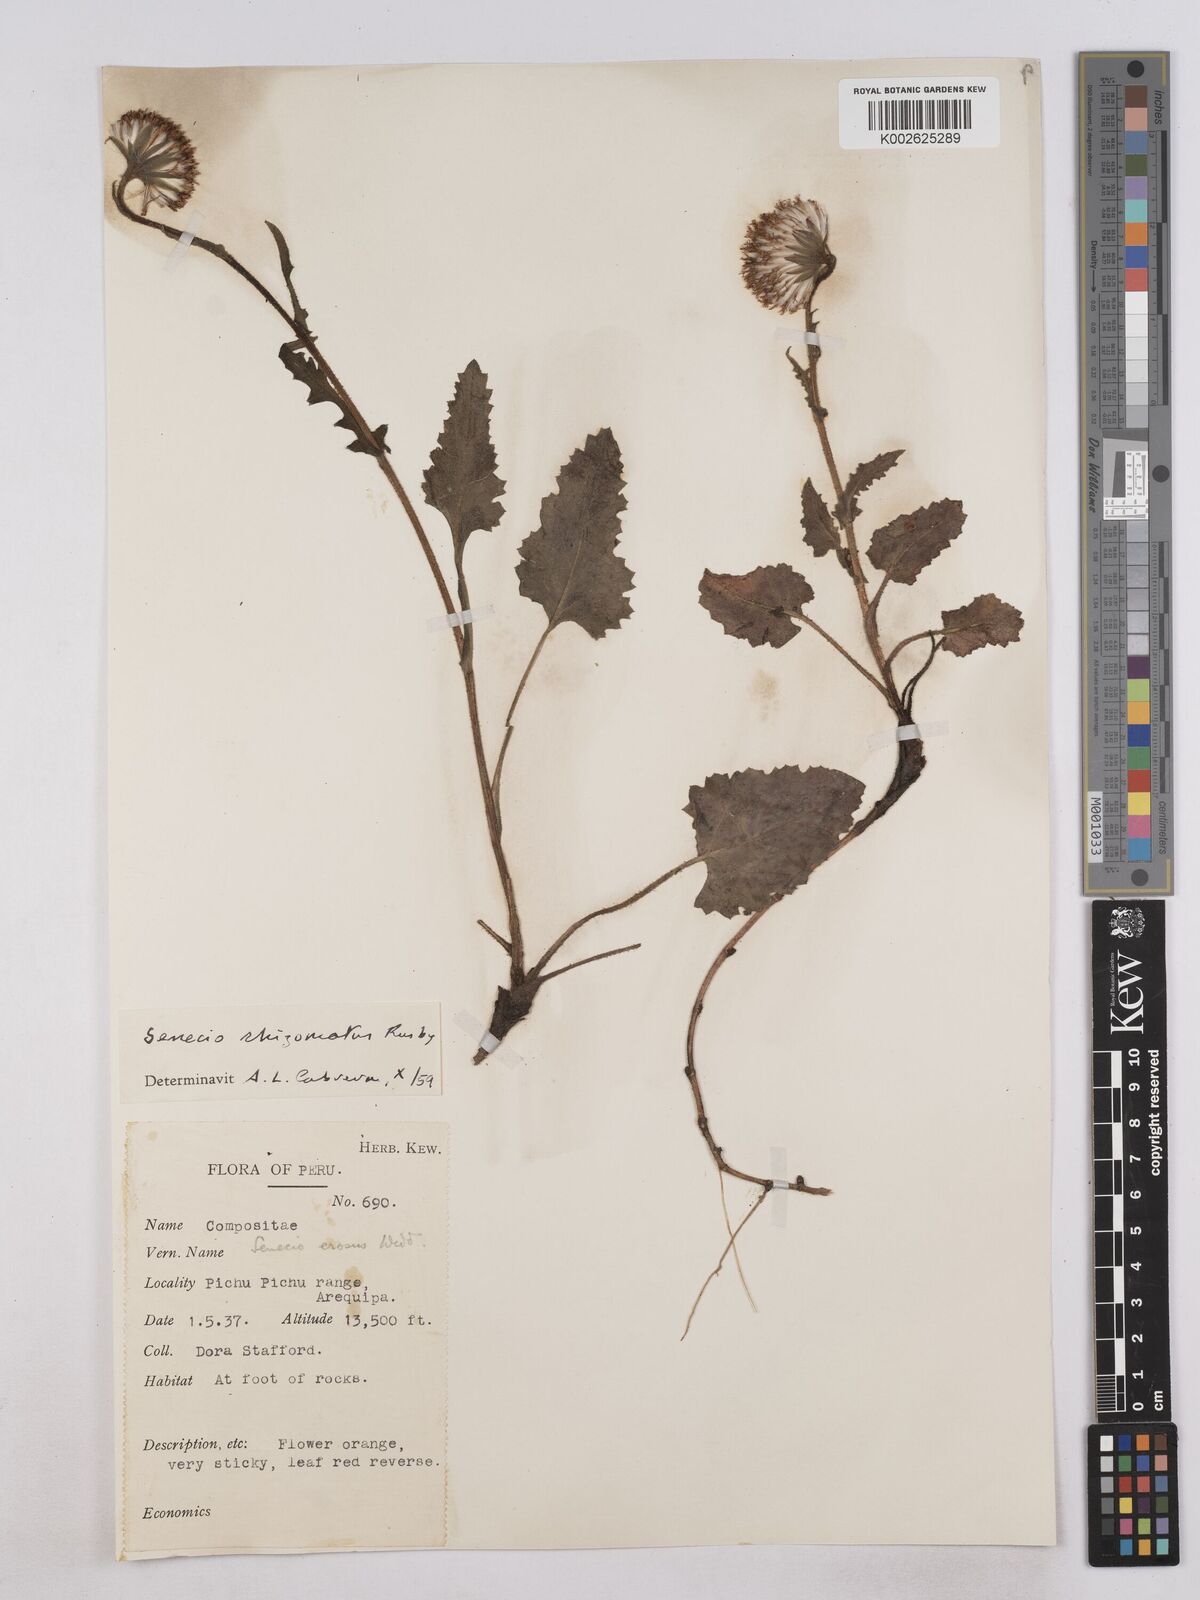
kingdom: Plantae
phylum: Tracheophyta
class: Magnoliopsida
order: Asterales
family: Asteraceae
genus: Senecio
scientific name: Senecio rhizomatus
